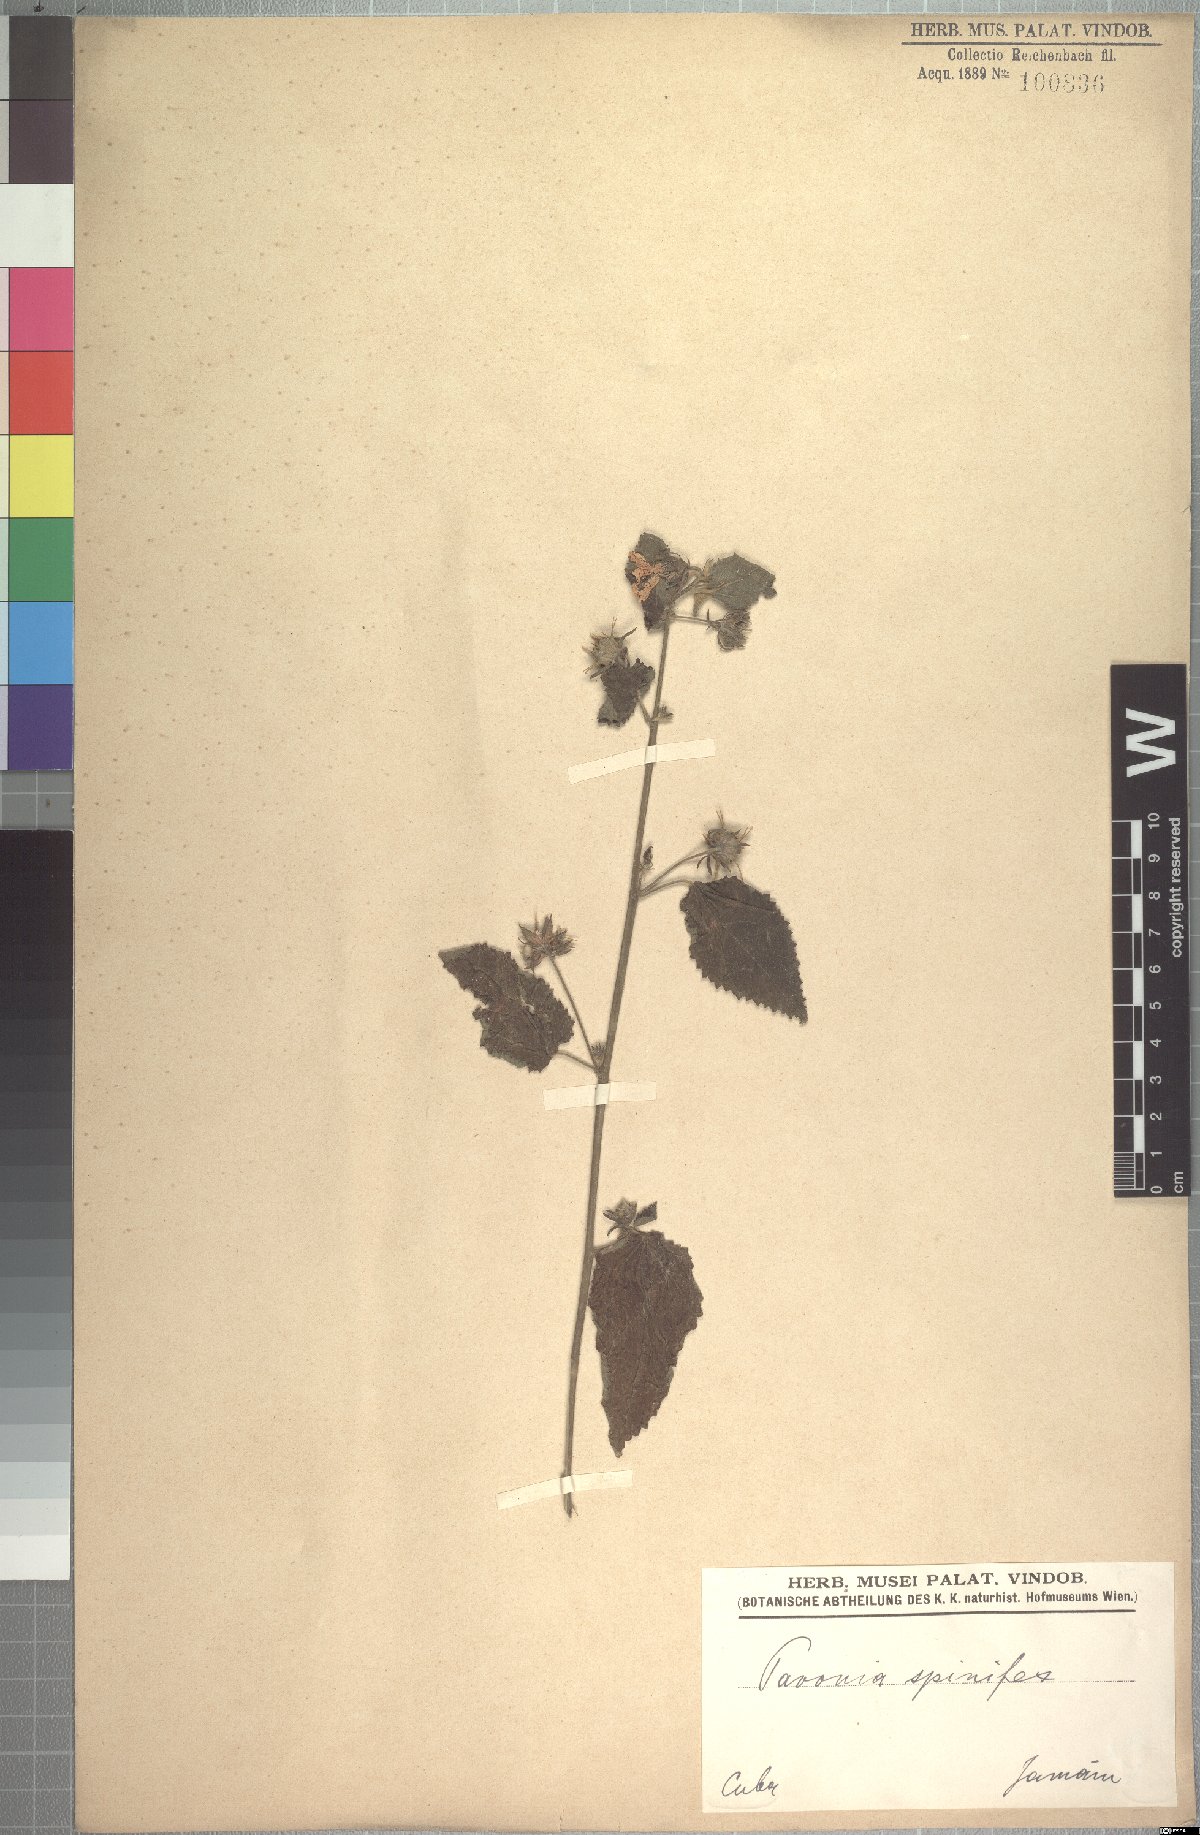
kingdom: Plantae
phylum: Tracheophyta
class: Magnoliopsida
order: Malvales
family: Malvaceae
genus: Pavonia
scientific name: Pavonia spinifex
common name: Ginger bush
